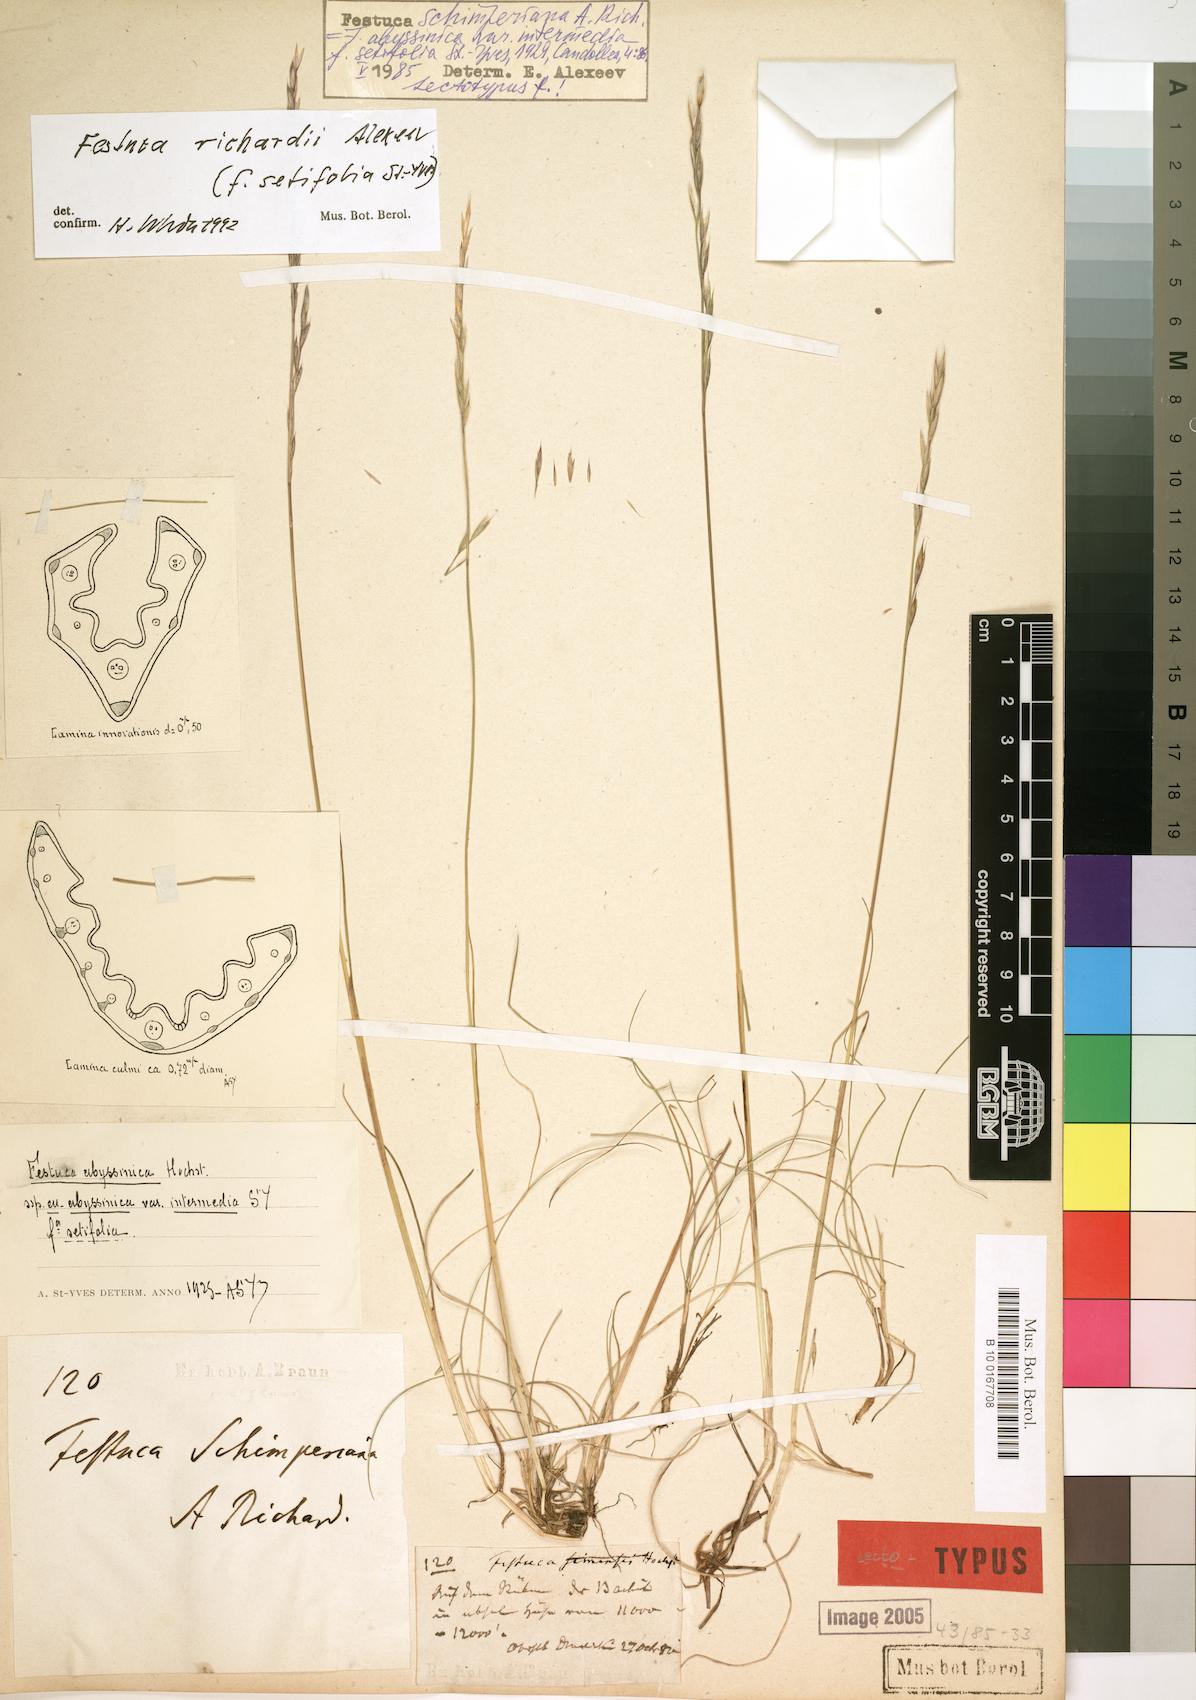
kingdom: Plantae
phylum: Tracheophyta
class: Liliopsida
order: Poales
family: Poaceae
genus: Festuca
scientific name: Festuca richardii
